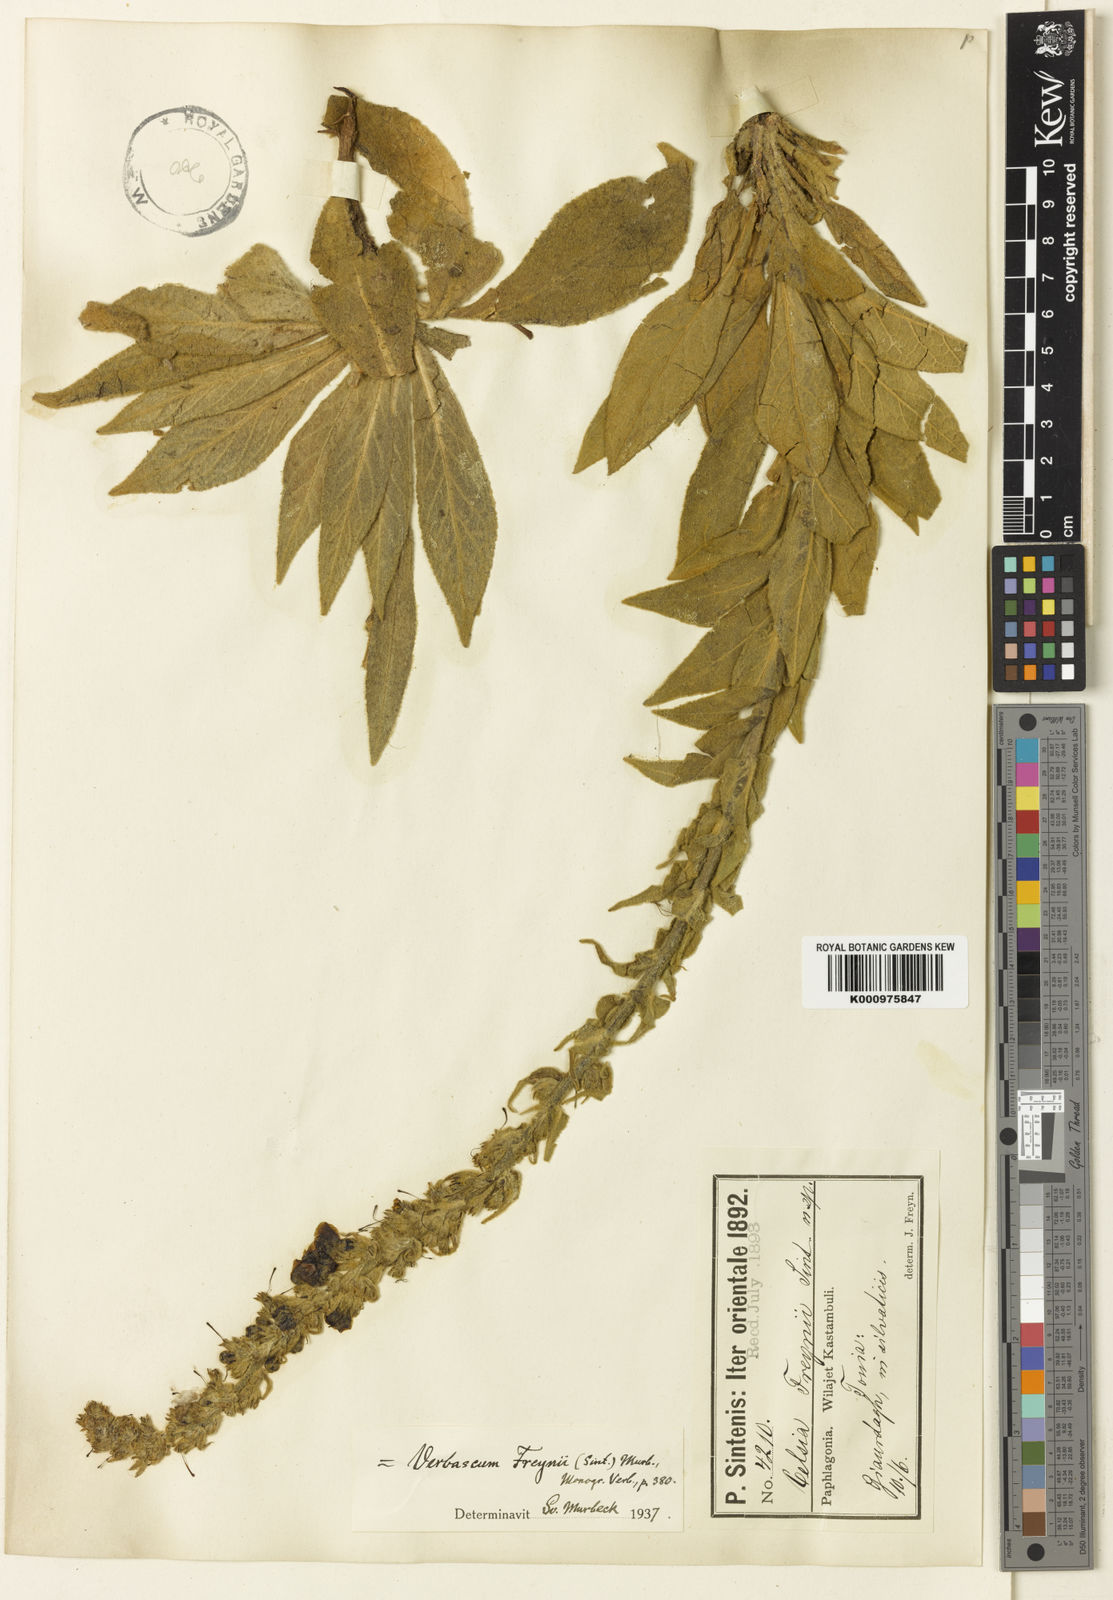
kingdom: Plantae
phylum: Tracheophyta
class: Magnoliopsida
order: Lamiales
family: Scrophulariaceae
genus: Verbascum
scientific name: Verbascum freynii
